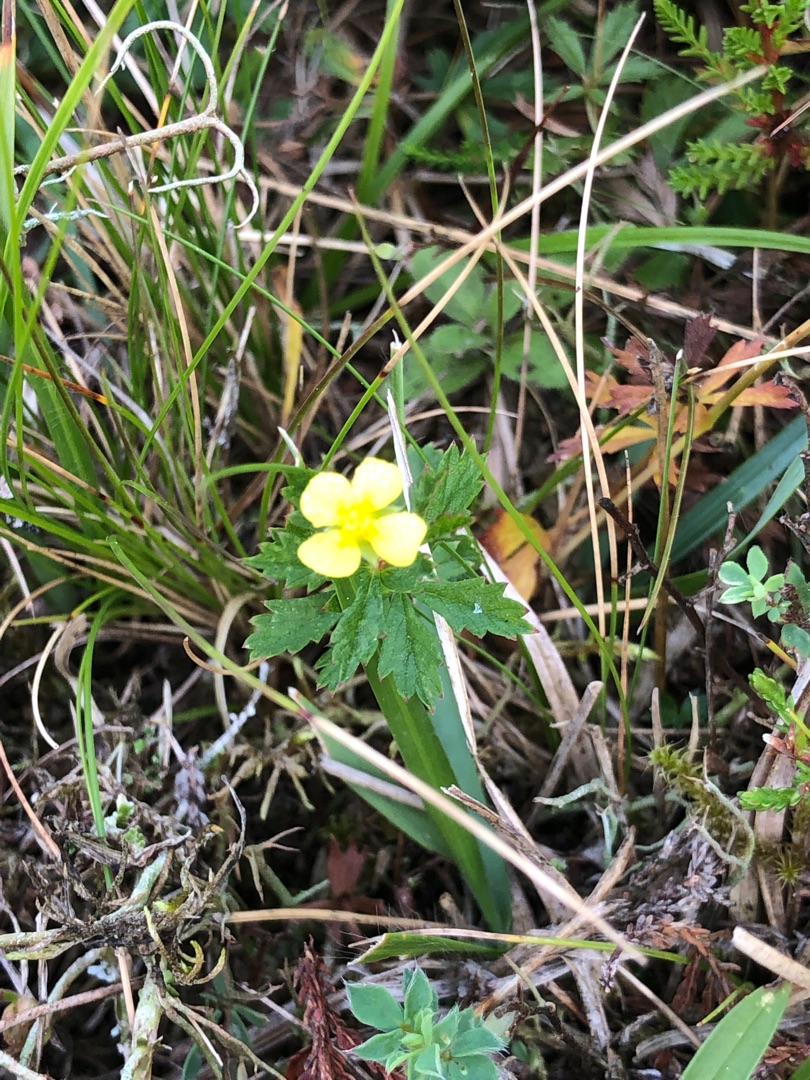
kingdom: Plantae
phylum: Tracheophyta
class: Magnoliopsida
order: Rosales
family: Rosaceae
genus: Potentilla
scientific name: Potentilla erecta
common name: Tormentil
